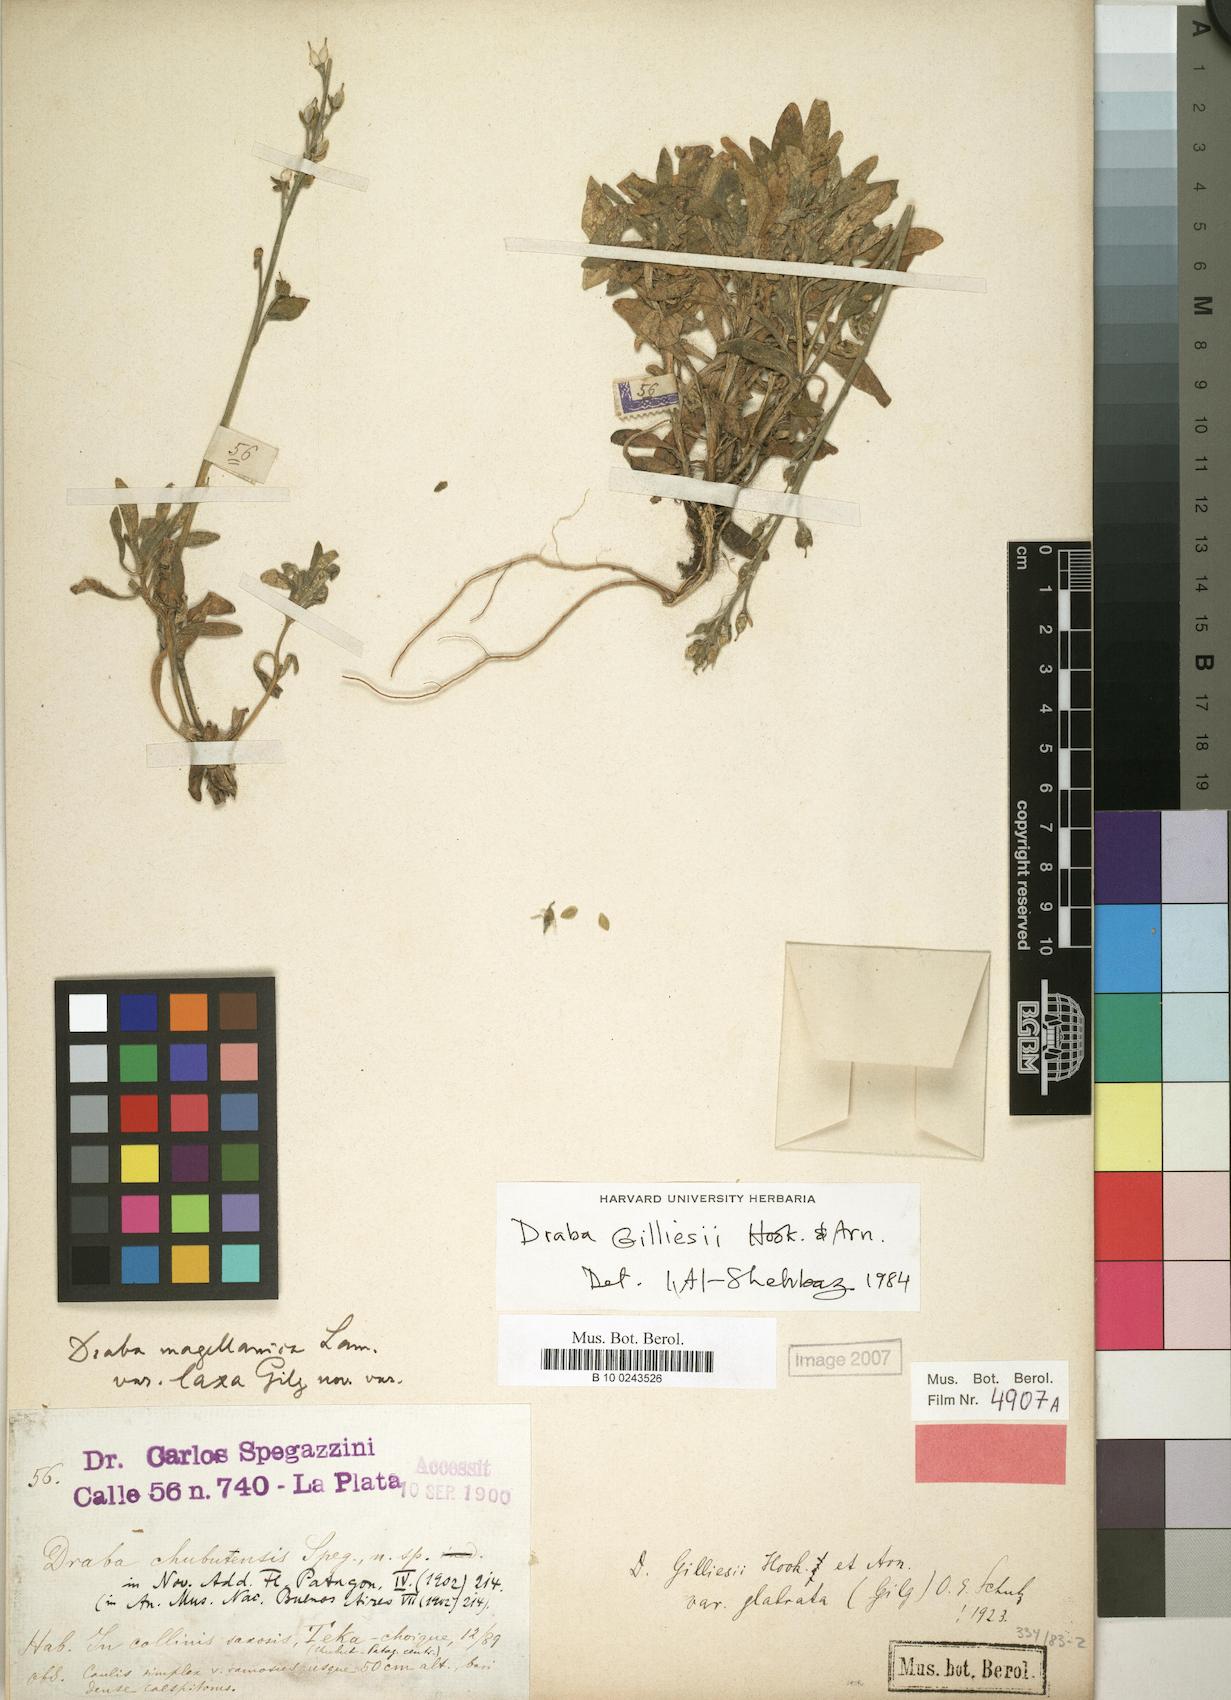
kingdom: Plantae
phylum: Tracheophyta
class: Magnoliopsida
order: Brassicales
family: Brassicaceae
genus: Draba
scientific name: Draba gilliesii
